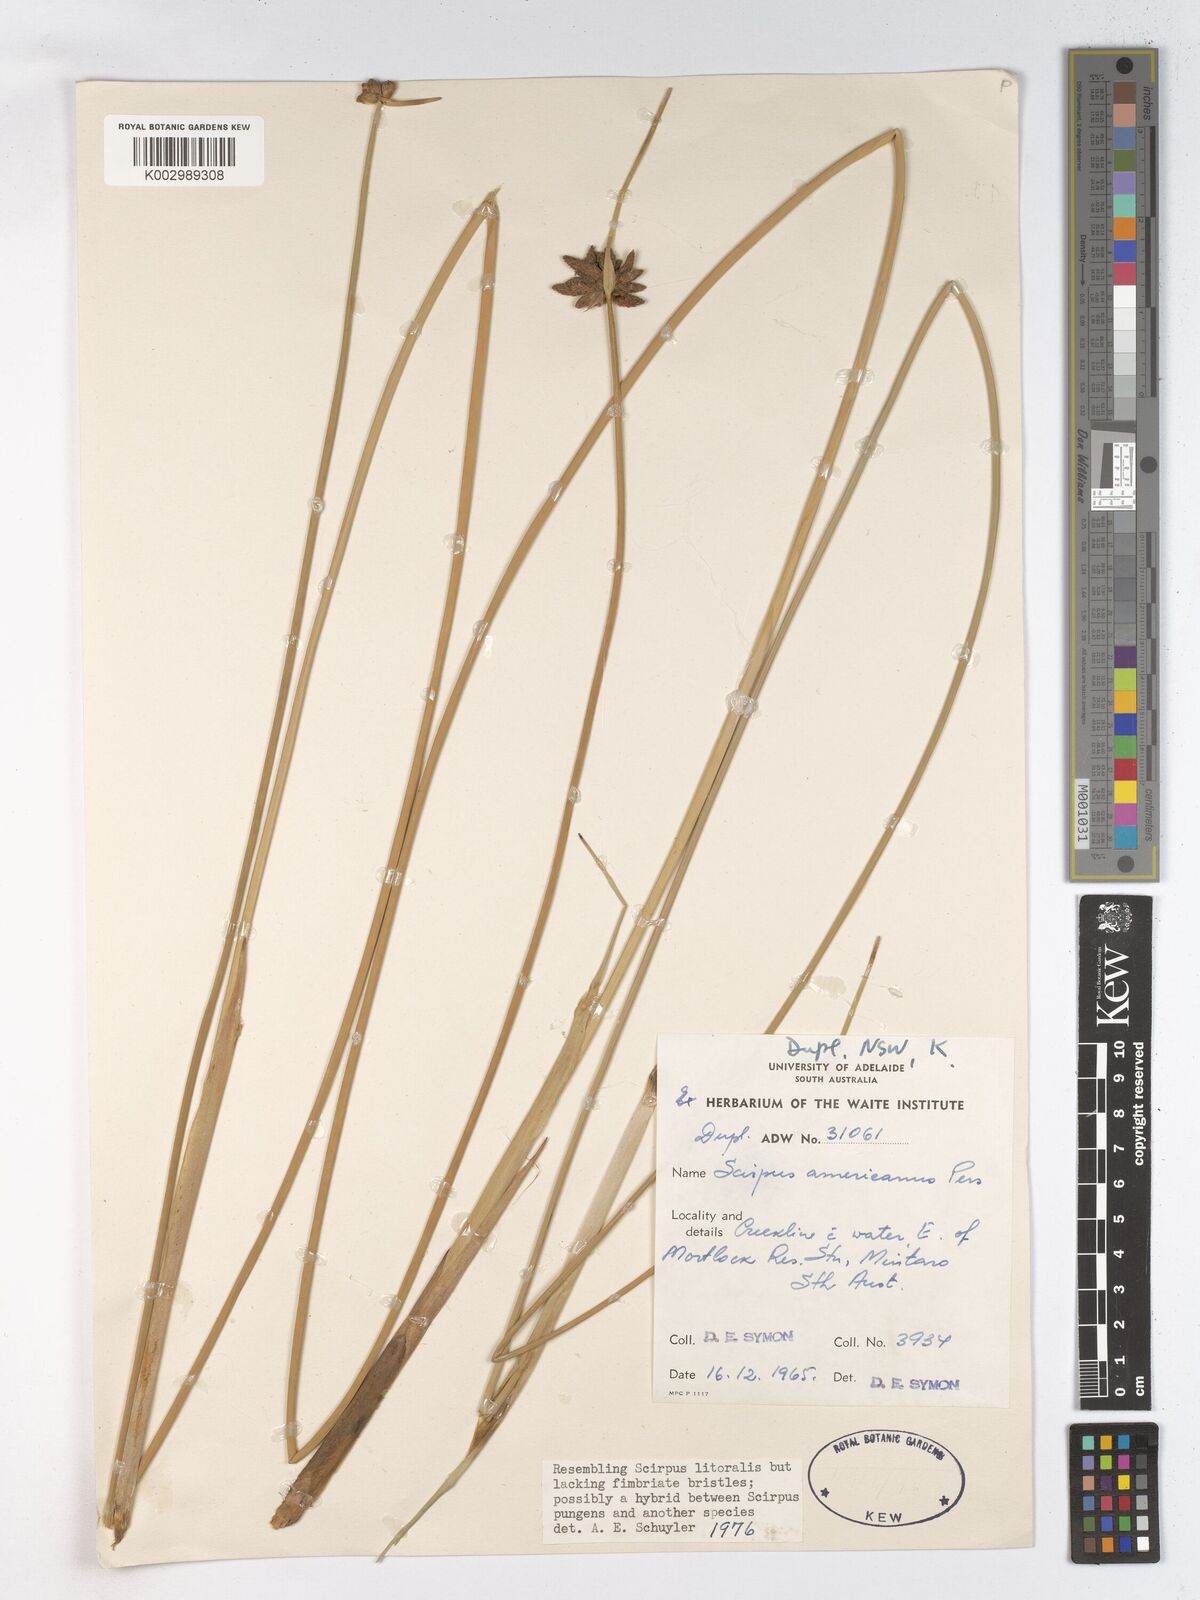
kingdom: Plantae
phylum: Tracheophyta
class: Liliopsida
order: Poales
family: Cyperaceae
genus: Schoenoplectus
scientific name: Schoenoplectus pungens
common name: Sharp club-rush
